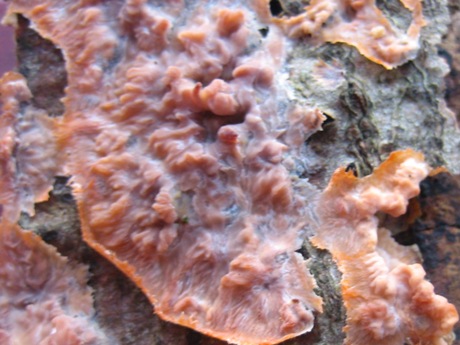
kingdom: Fungi
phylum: Basidiomycota
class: Agaricomycetes
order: Polyporales
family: Meruliaceae
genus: Phlebia
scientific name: Phlebia radiata
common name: stråle-åresvamp
